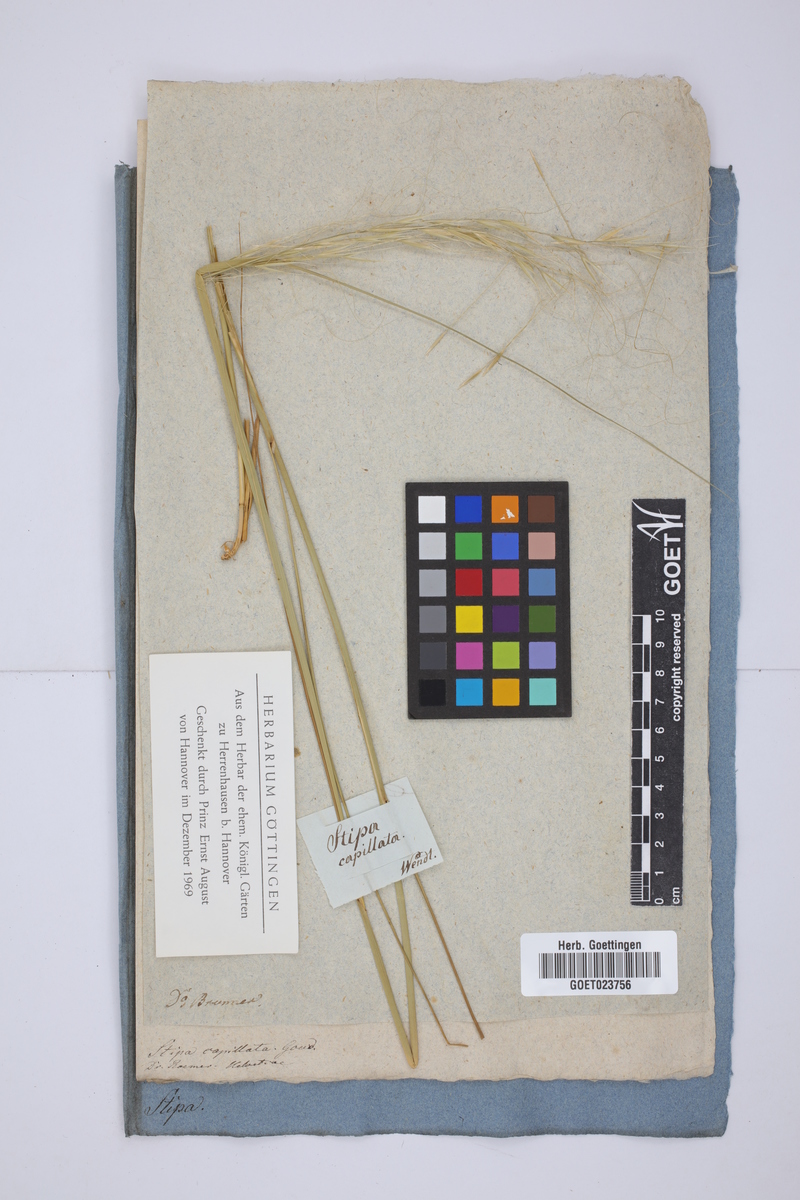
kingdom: Plantae
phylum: Tracheophyta
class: Liliopsida
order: Poales
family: Poaceae
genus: Stipa
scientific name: Stipa capillata
